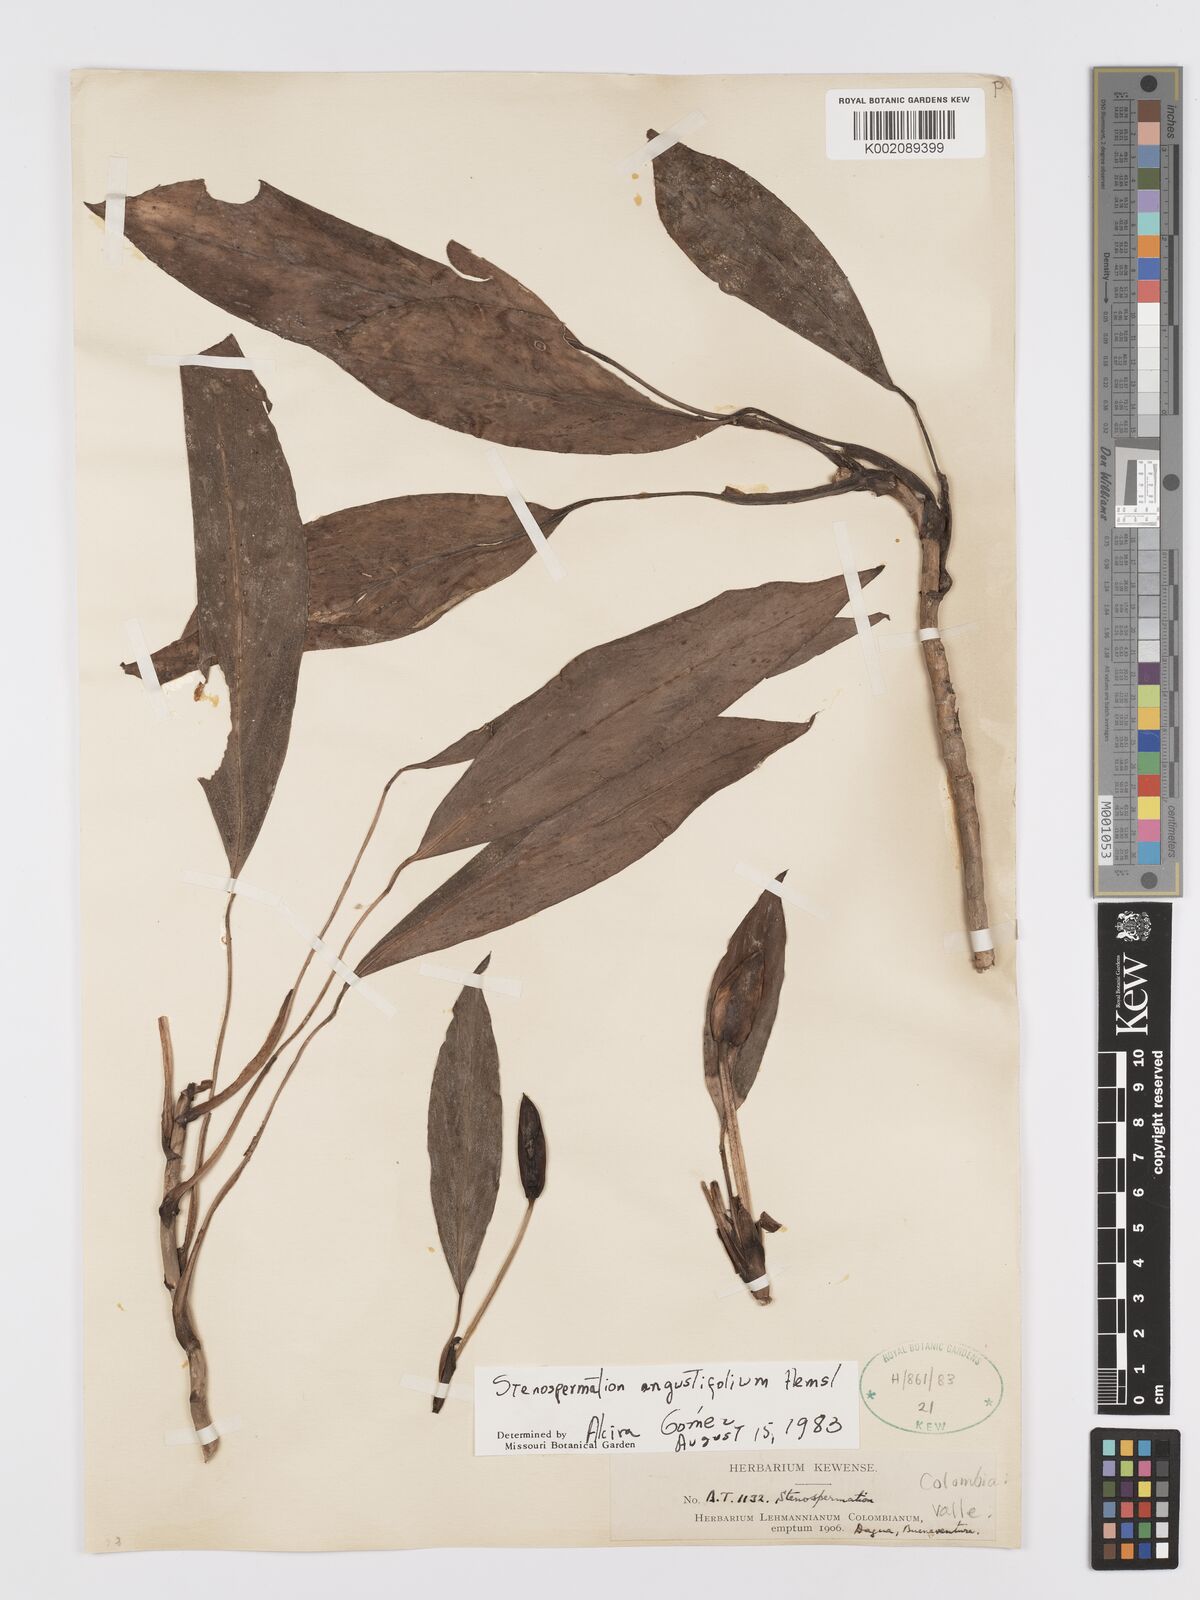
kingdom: Plantae
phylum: Tracheophyta
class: Liliopsida
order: Alismatales
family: Araceae
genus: Stenospermation
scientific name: Stenospermation angustifolium
